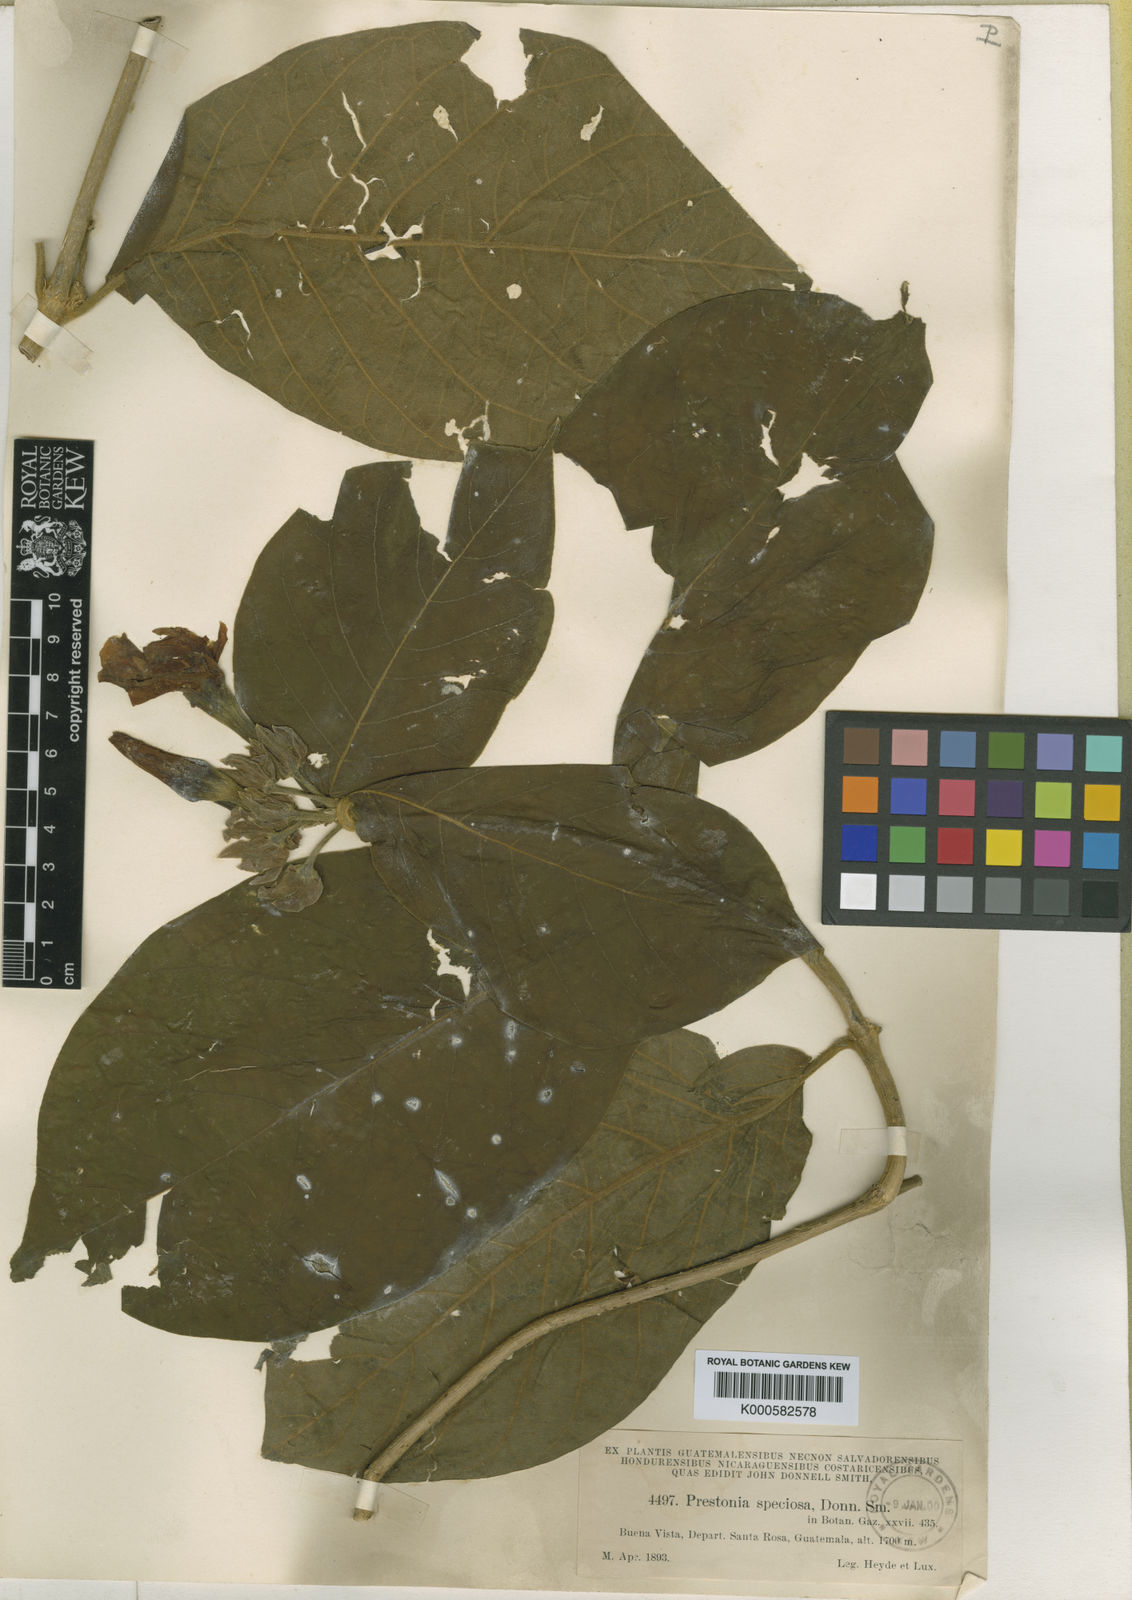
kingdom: Plantae
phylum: Tracheophyta
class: Magnoliopsida
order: Gentianales
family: Apocynaceae
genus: Prestonia
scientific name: Prestonia speciosa
